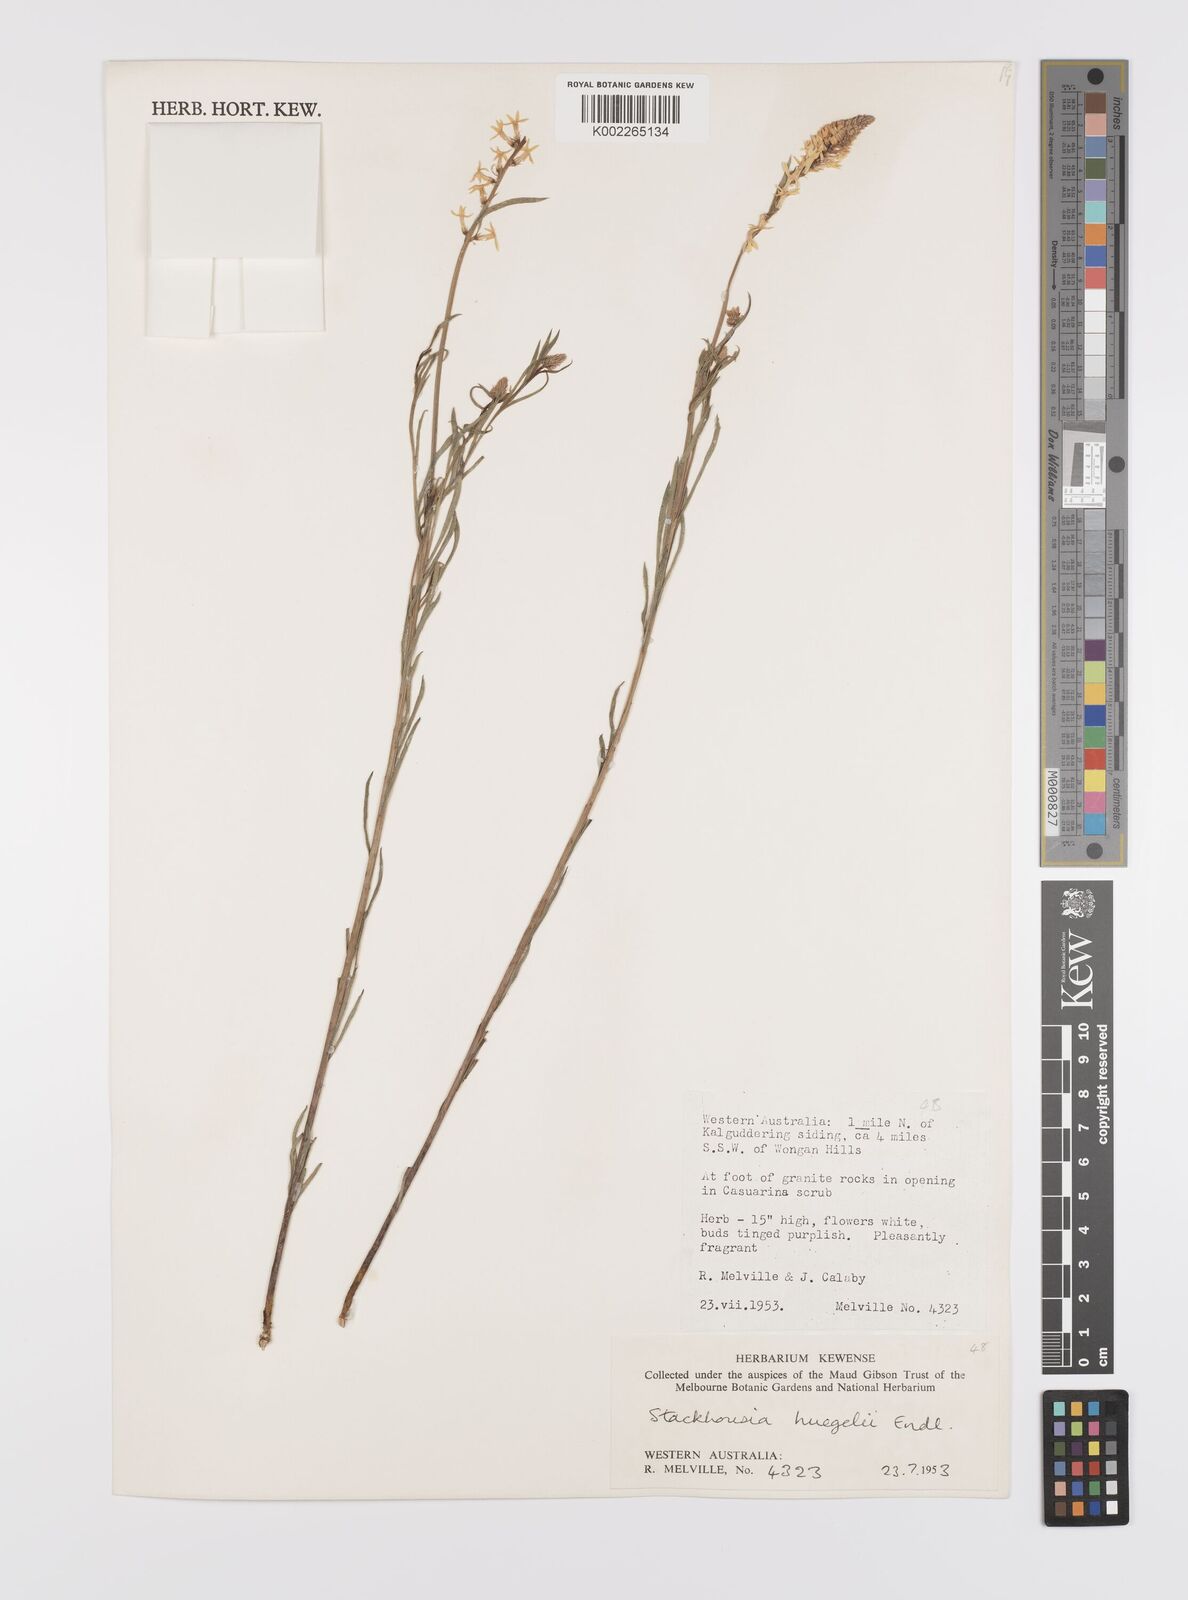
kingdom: Plantae
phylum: Tracheophyta
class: Magnoliopsida
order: Celastrales
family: Celastraceae
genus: Stackhousia
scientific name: Stackhousia monogyna
